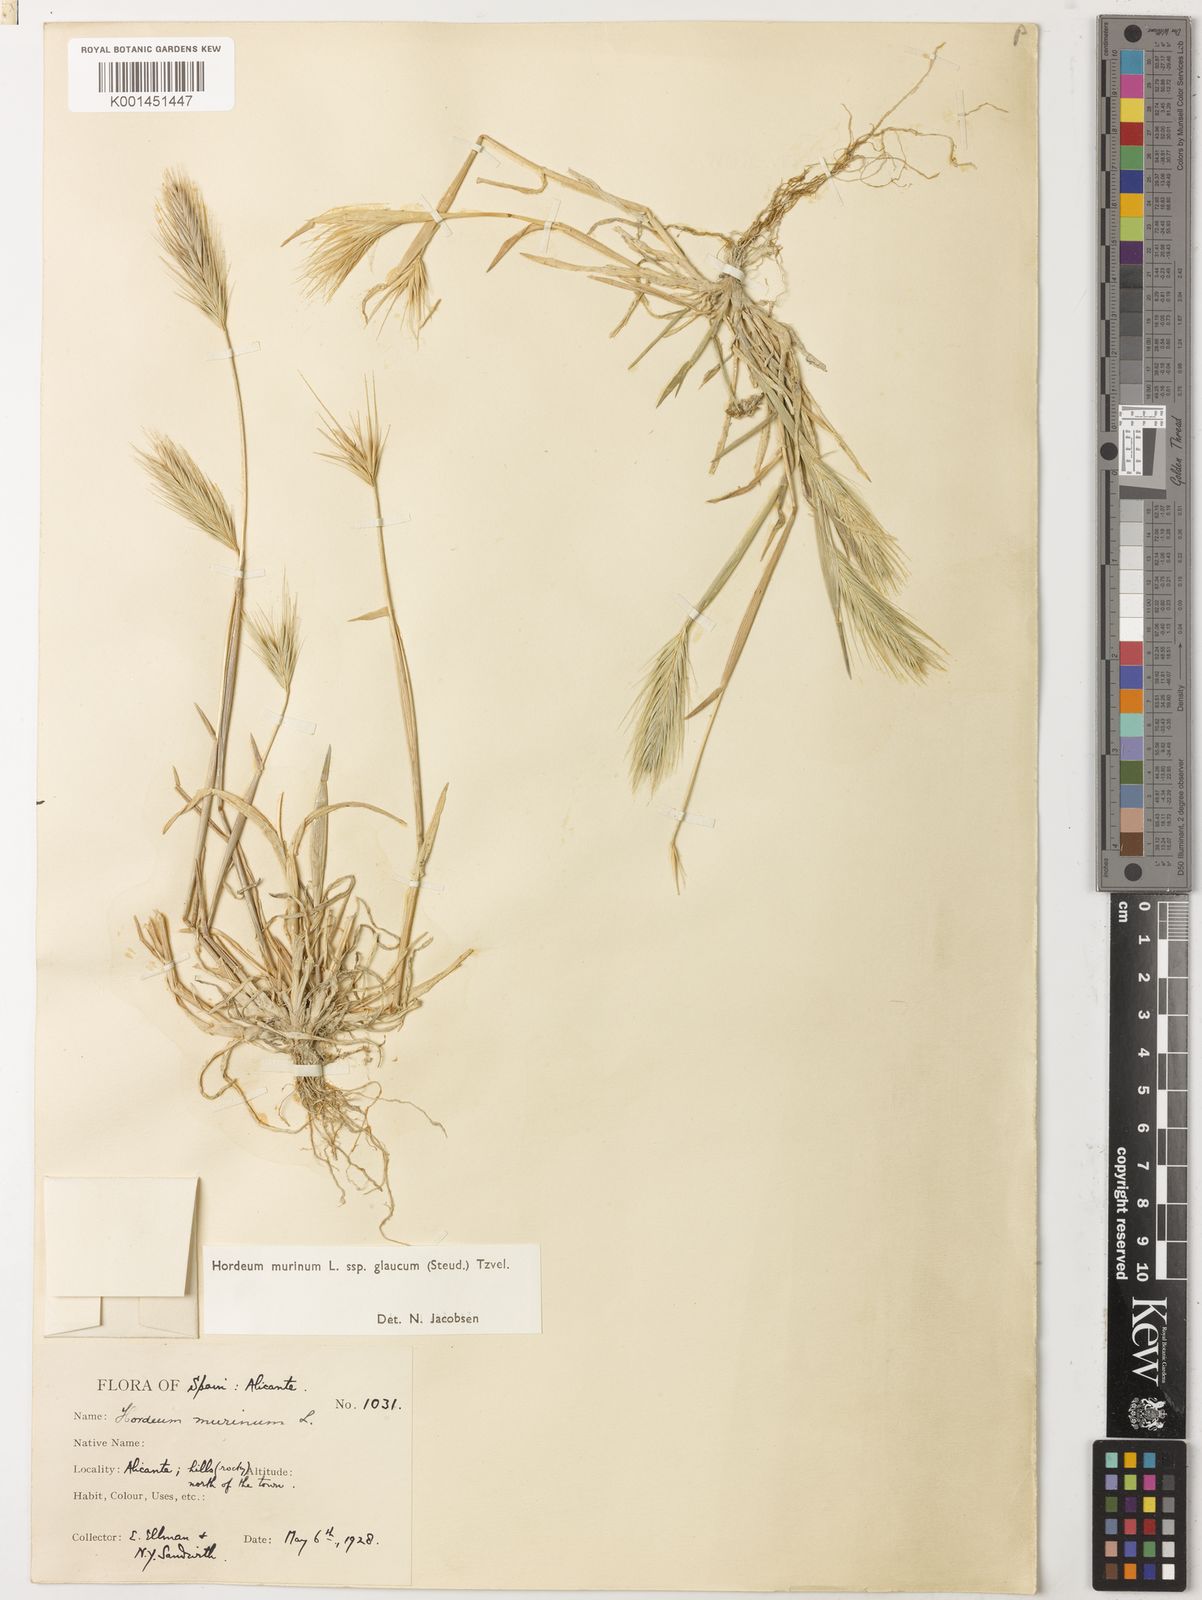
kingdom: Plantae
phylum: Tracheophyta
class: Liliopsida
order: Poales
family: Poaceae
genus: Hordeum
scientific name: Hordeum murinum
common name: Wall barley
